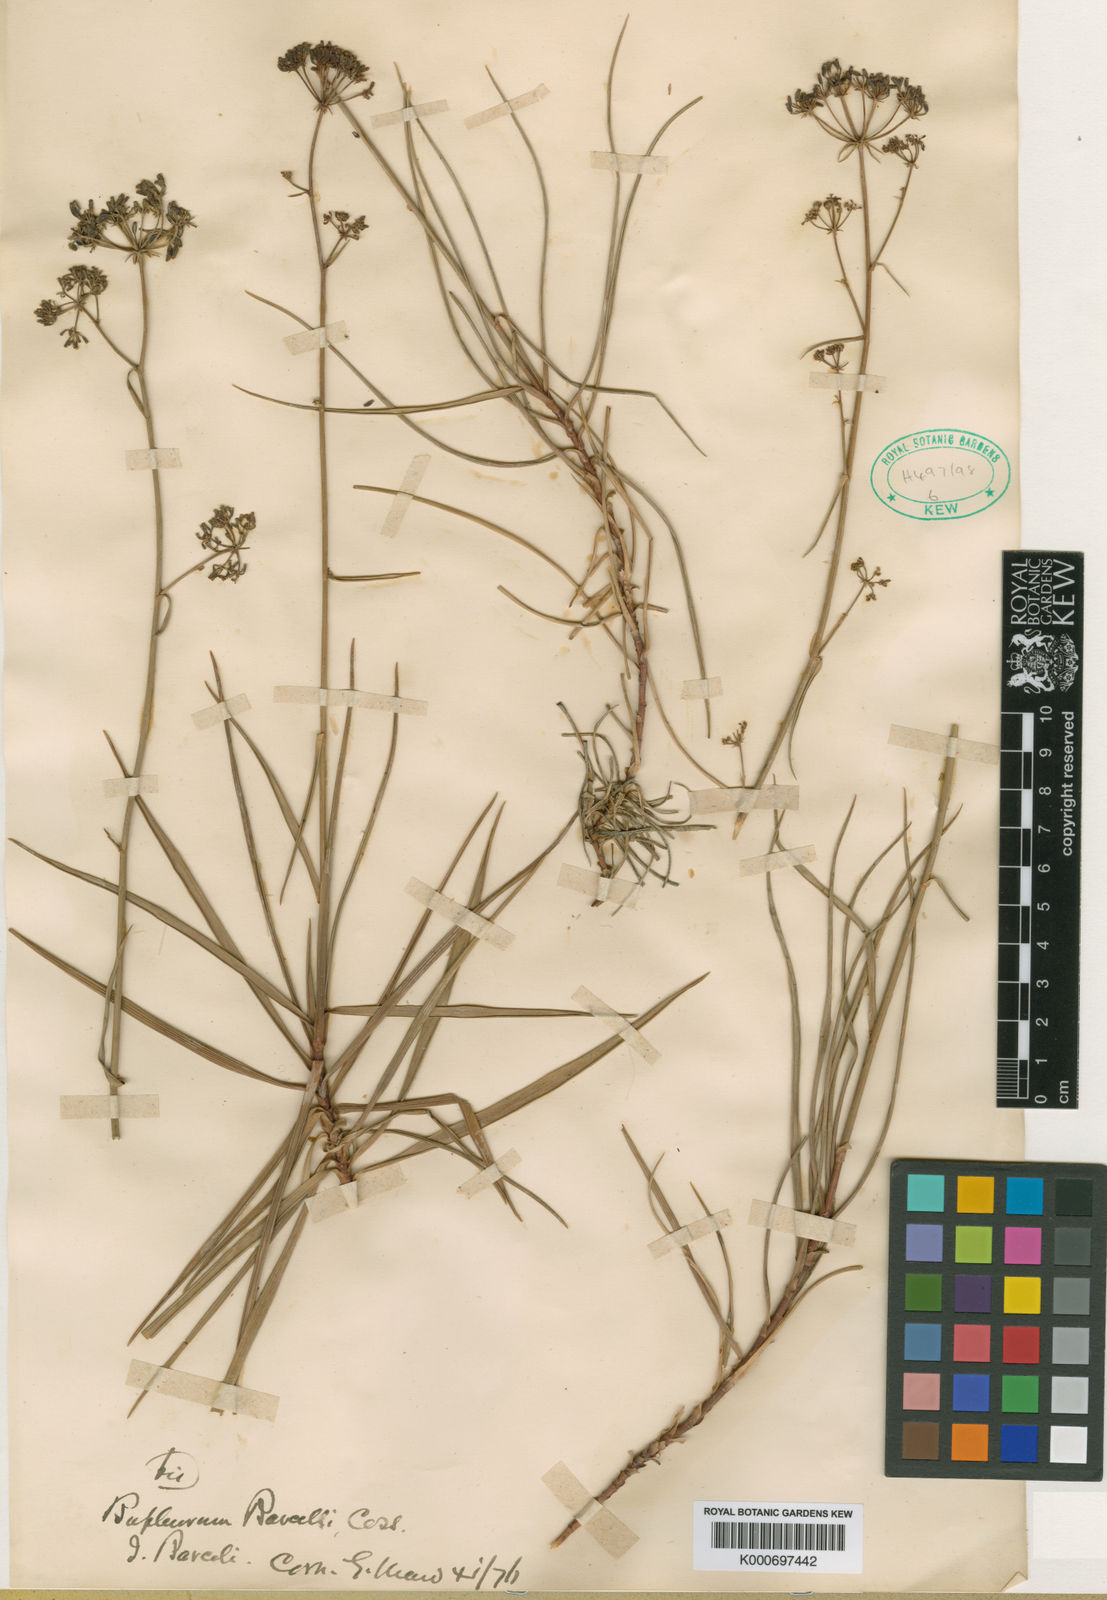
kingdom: Plantae
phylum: Tracheophyta
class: Magnoliopsida
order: Apiales
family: Apiaceae
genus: Bupleurum
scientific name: Bupleurum dianthifolium
